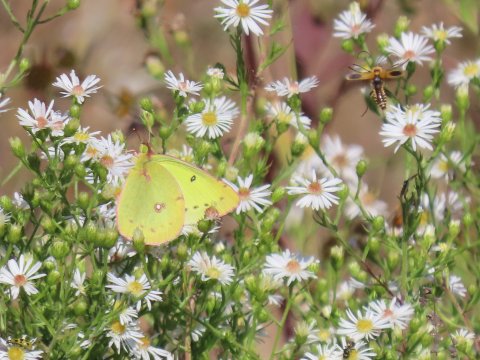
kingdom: Animalia
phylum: Arthropoda
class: Insecta
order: Lepidoptera
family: Pieridae
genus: Colias
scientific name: Colias philodice
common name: Clouded Sulphur
